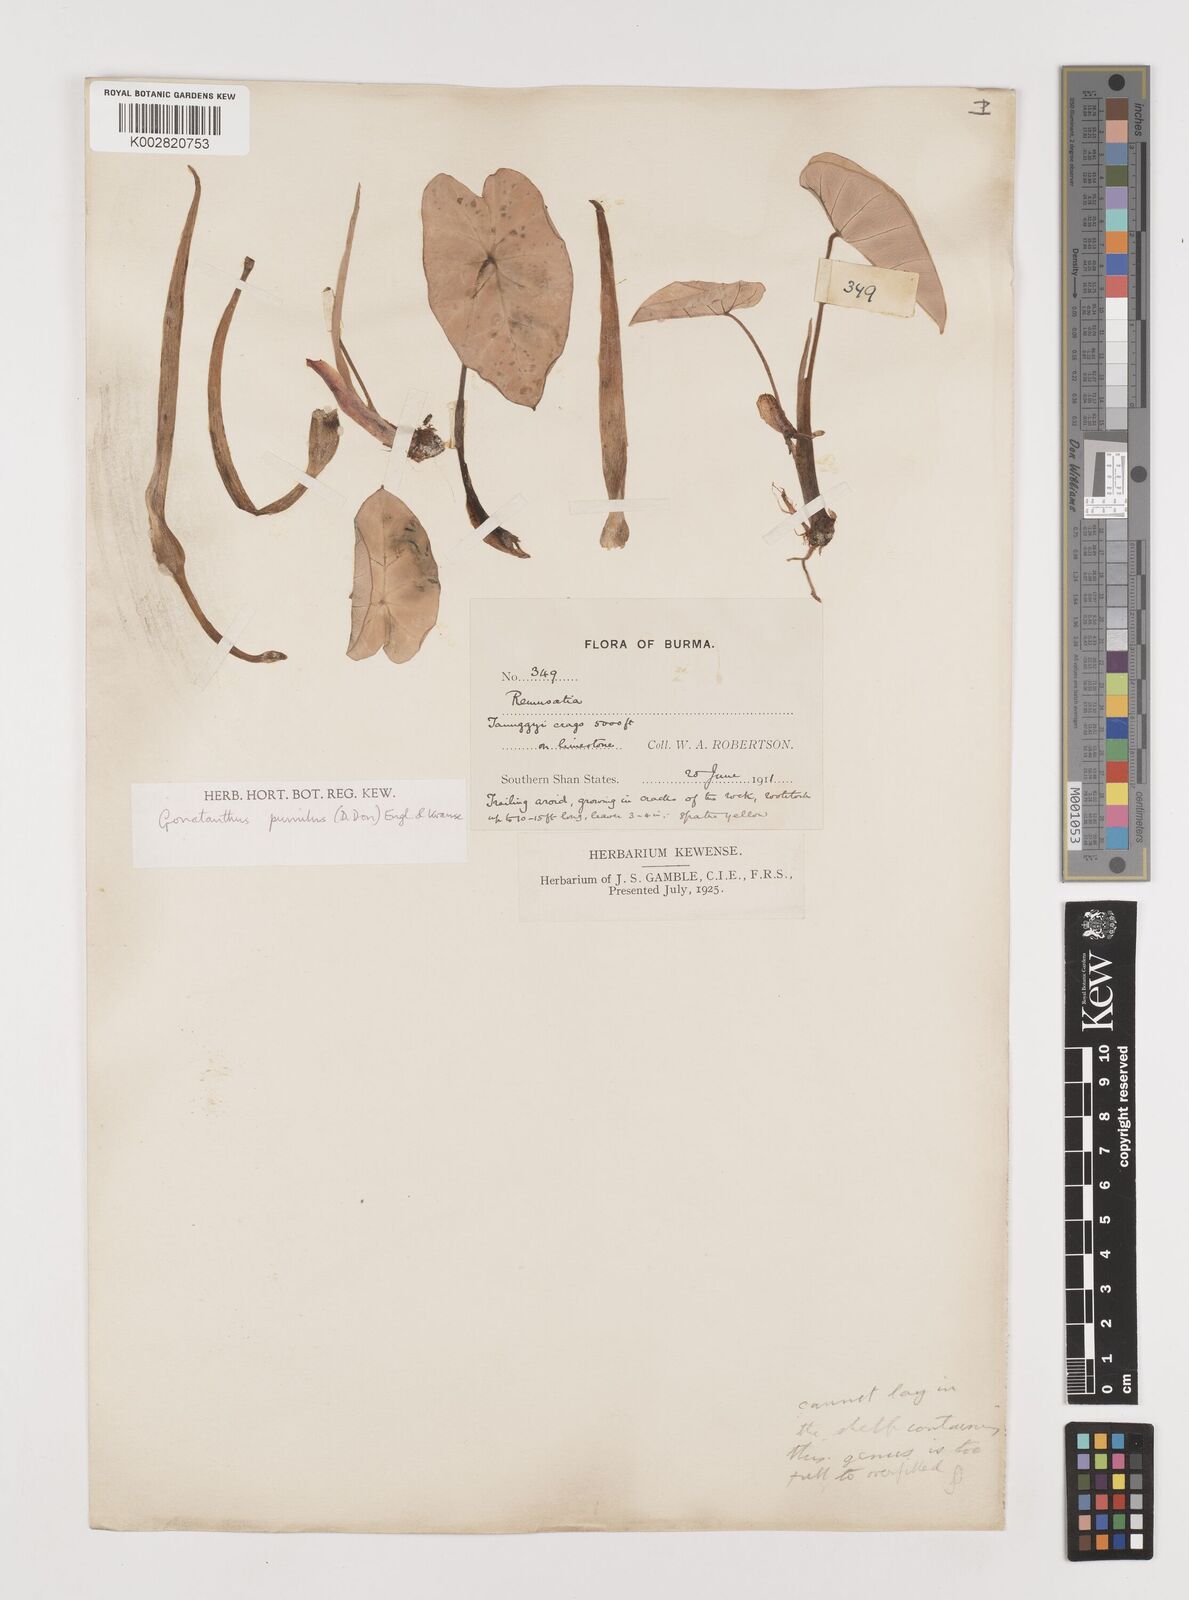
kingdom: Plantae
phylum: Tracheophyta
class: Liliopsida
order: Alismatales
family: Araceae
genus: Remusatia
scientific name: Remusatia pumila
